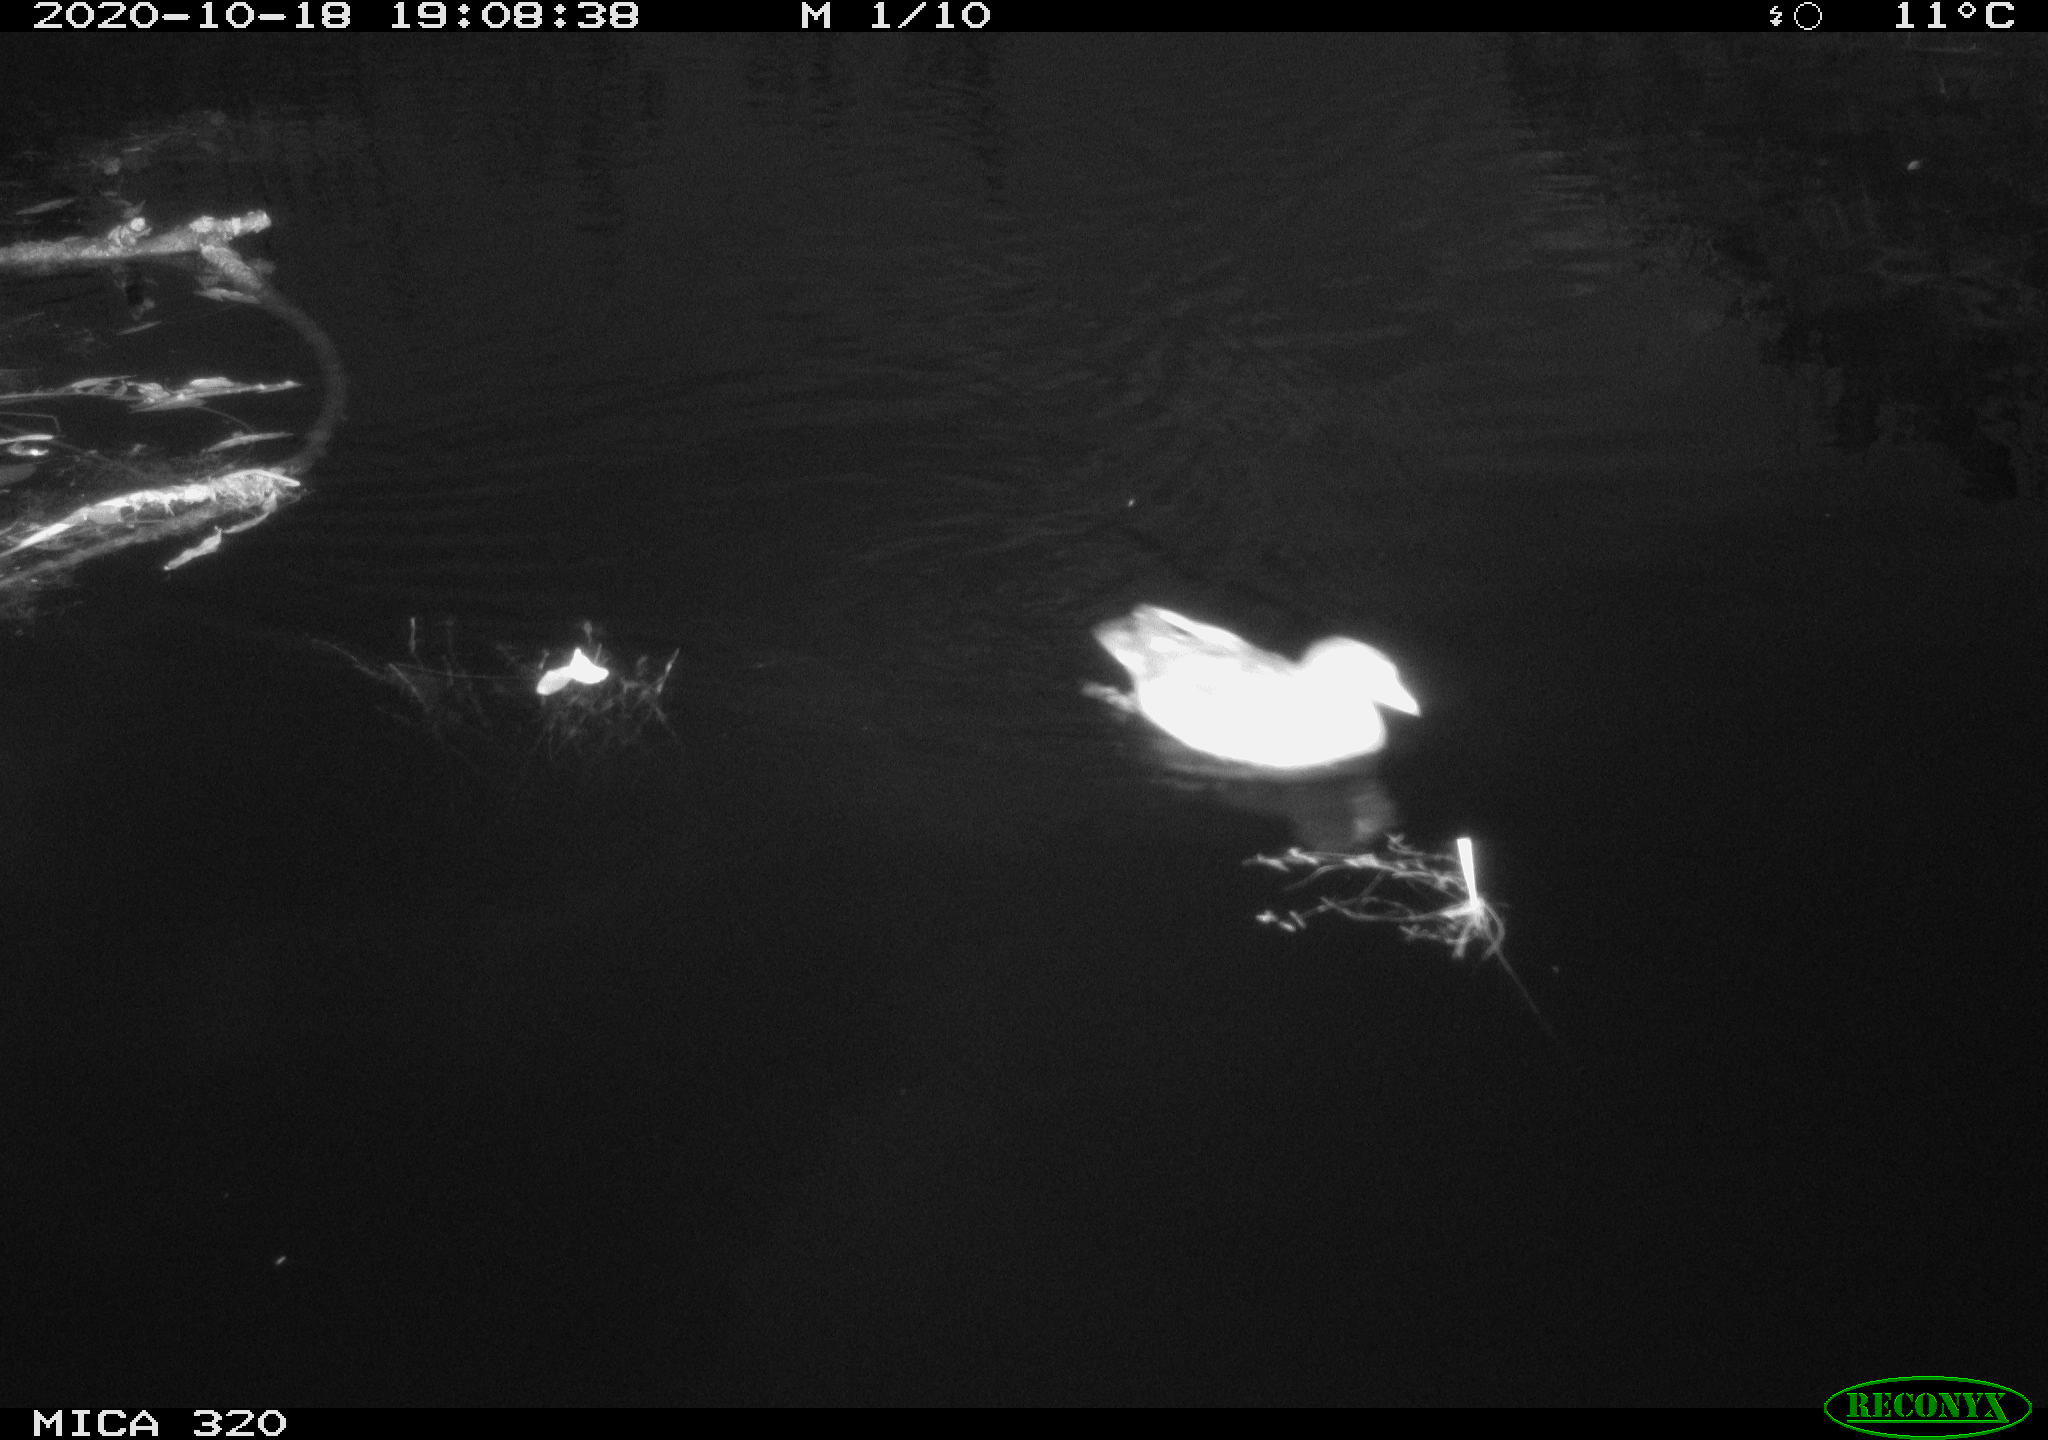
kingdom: Animalia
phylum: Chordata
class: Aves
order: Gruiformes
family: Rallidae
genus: Gallinula
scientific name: Gallinula chloropus
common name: Common moorhen
